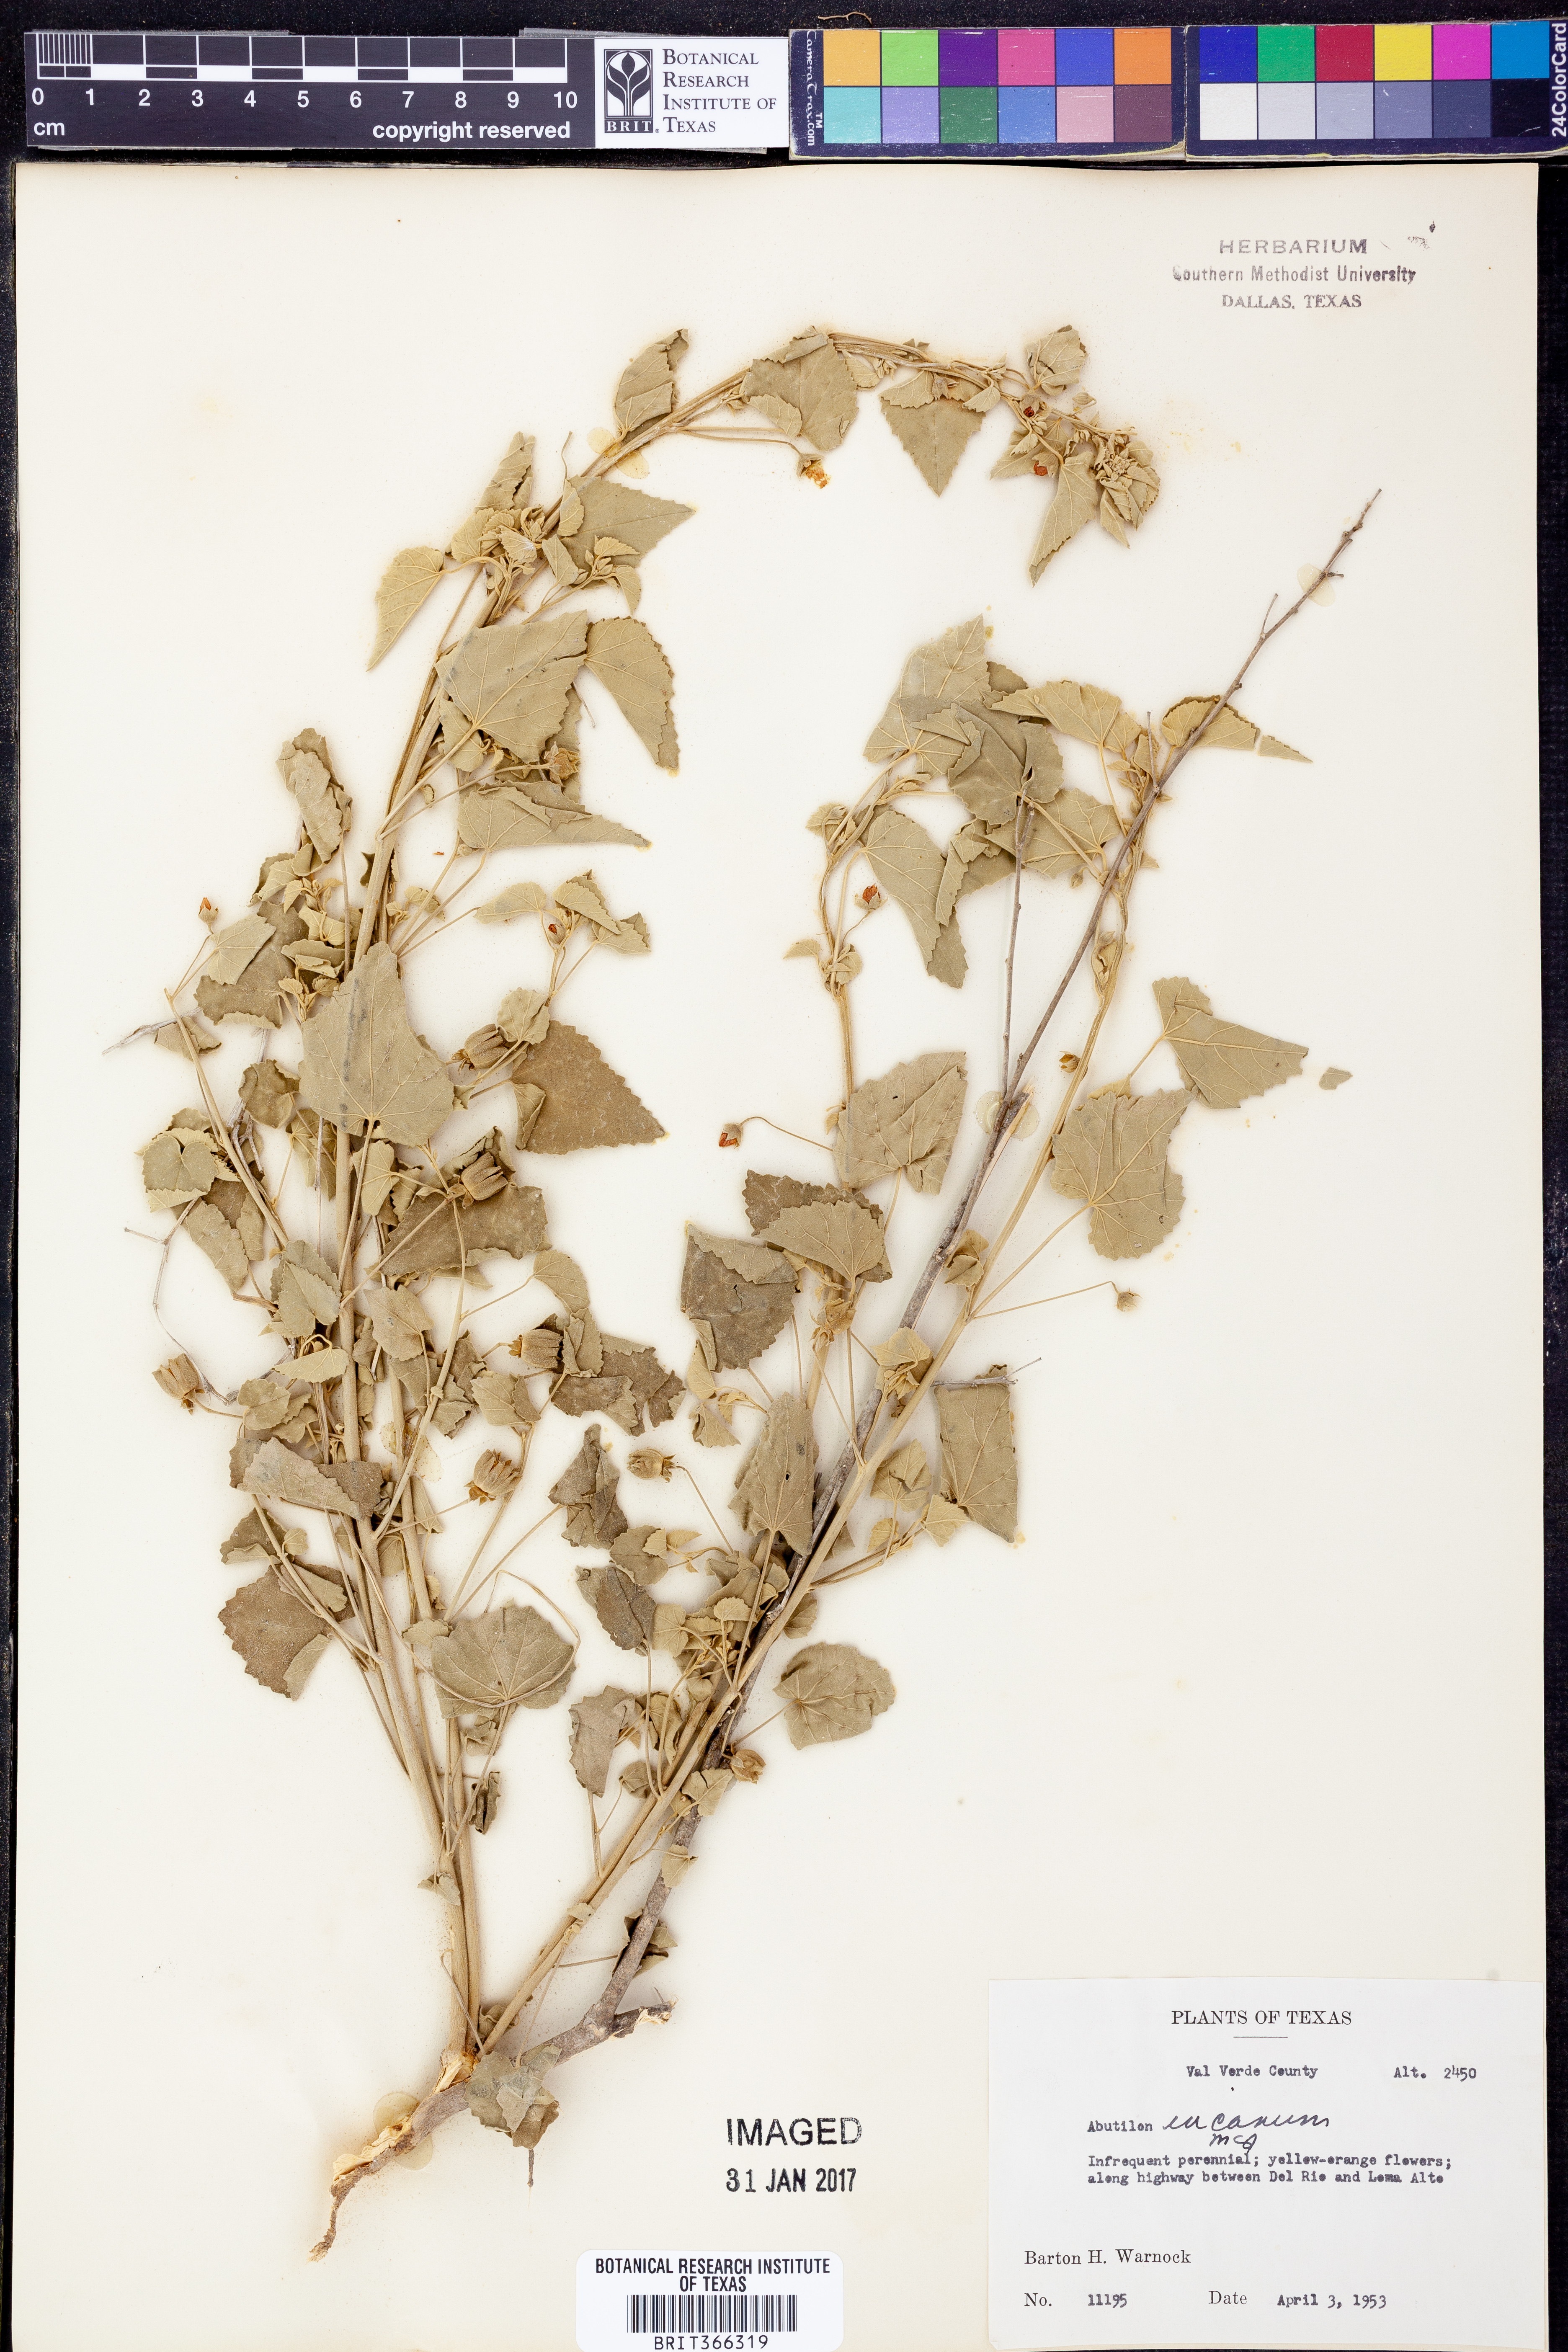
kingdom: Plantae
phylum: Tracheophyta
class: Magnoliopsida
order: Malvales
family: Malvaceae
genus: Abutilon
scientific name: Abutilon incanum
